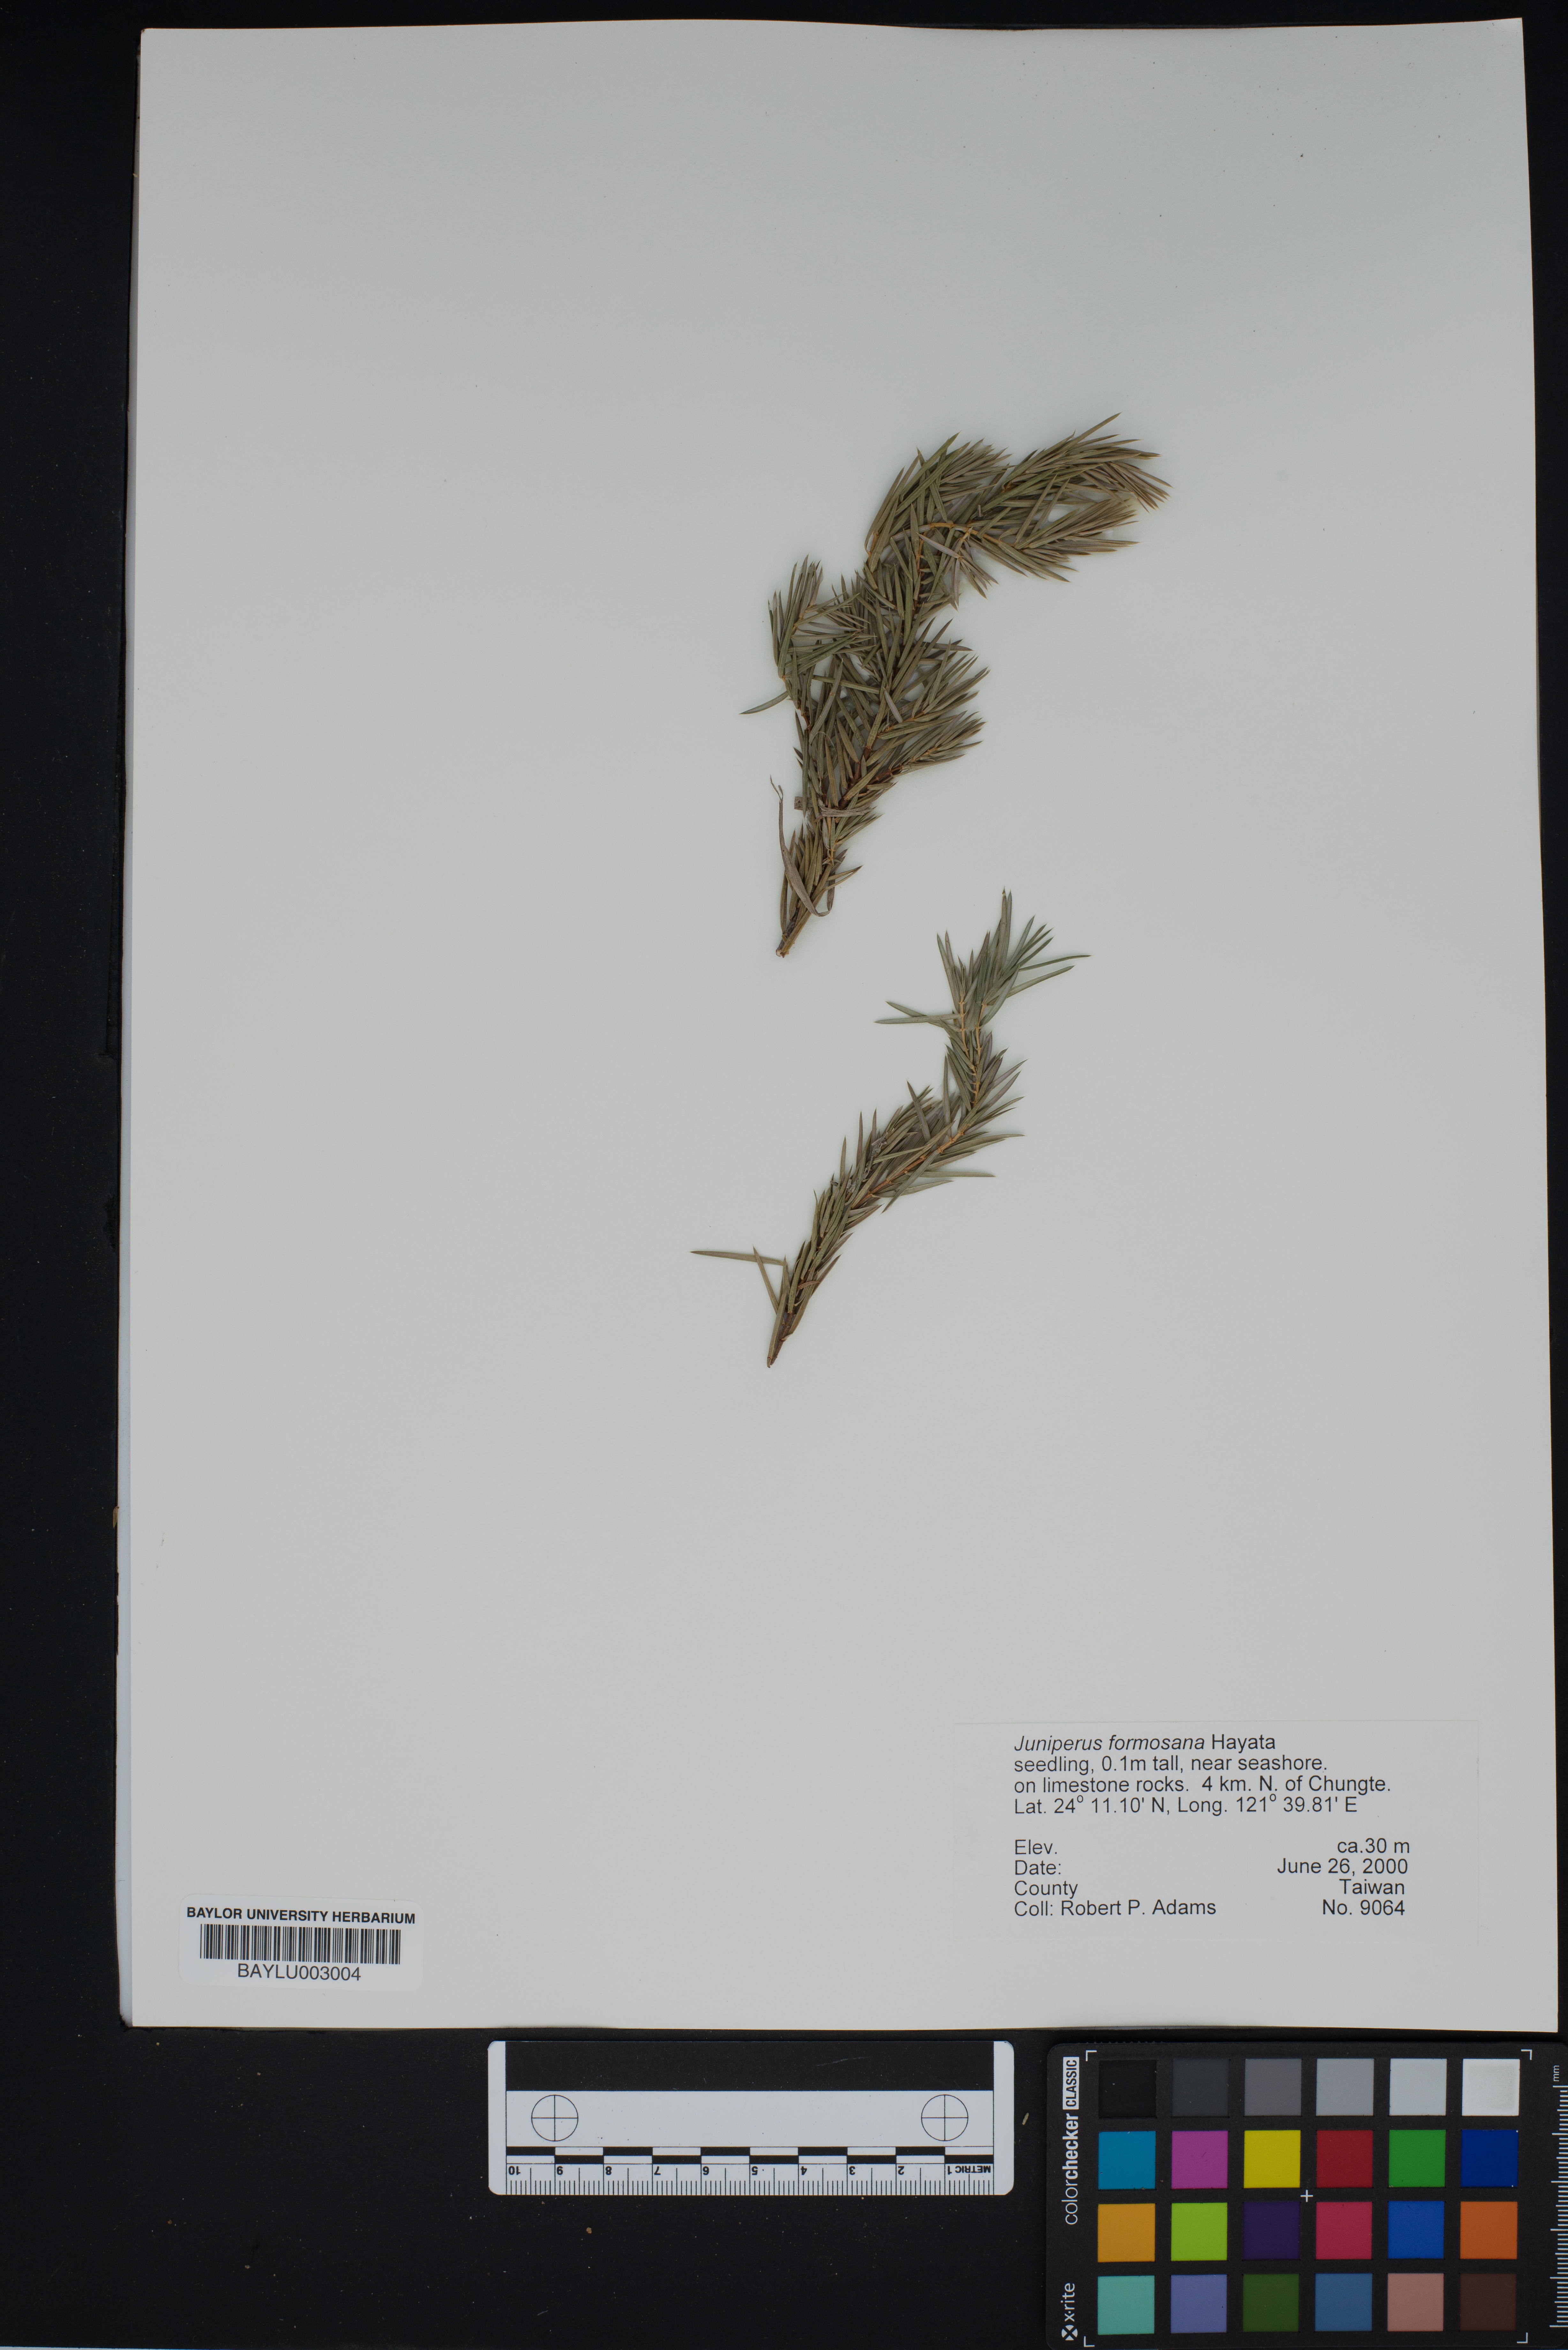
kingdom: Plantae
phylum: Tracheophyta
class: Pinopsida
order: Pinales
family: Cupressaceae
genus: Juniperus
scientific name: Juniperus formosana
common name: Formosan juniper
